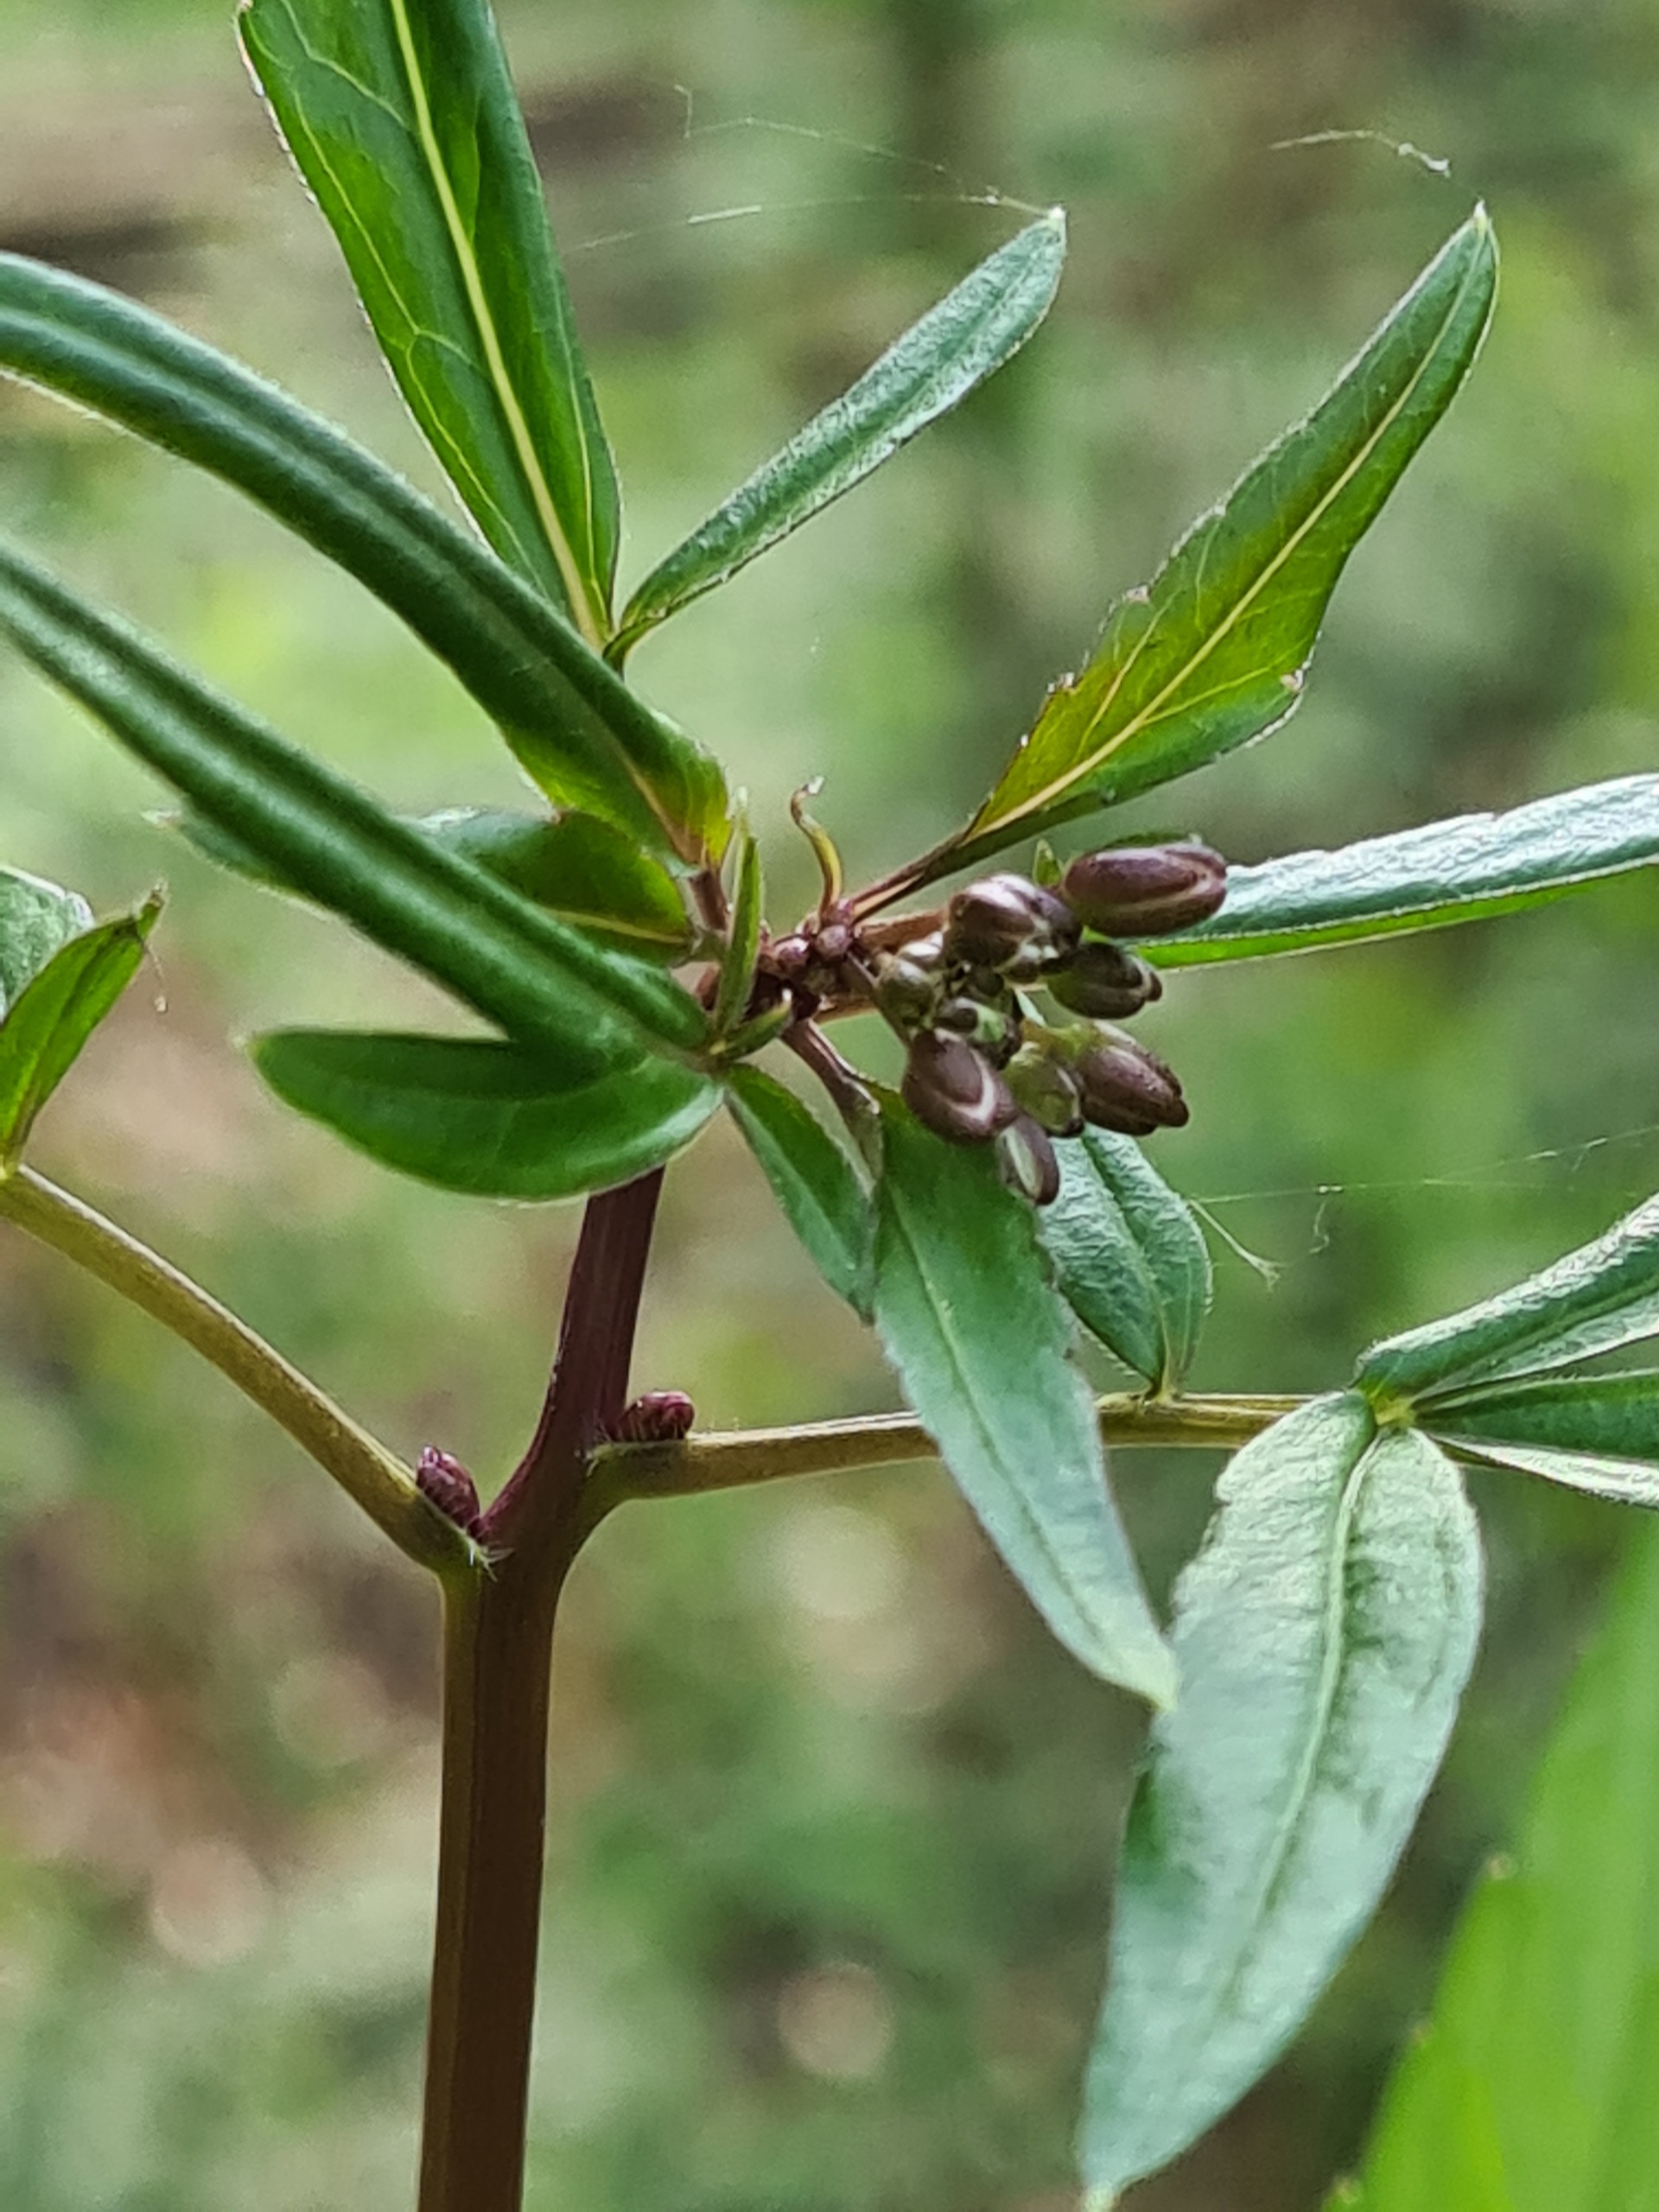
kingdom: Plantae
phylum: Tracheophyta
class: Magnoliopsida
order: Brassicales
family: Brassicaceae
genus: Cardamine
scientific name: Cardamine bulbifera
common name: Tandrod
